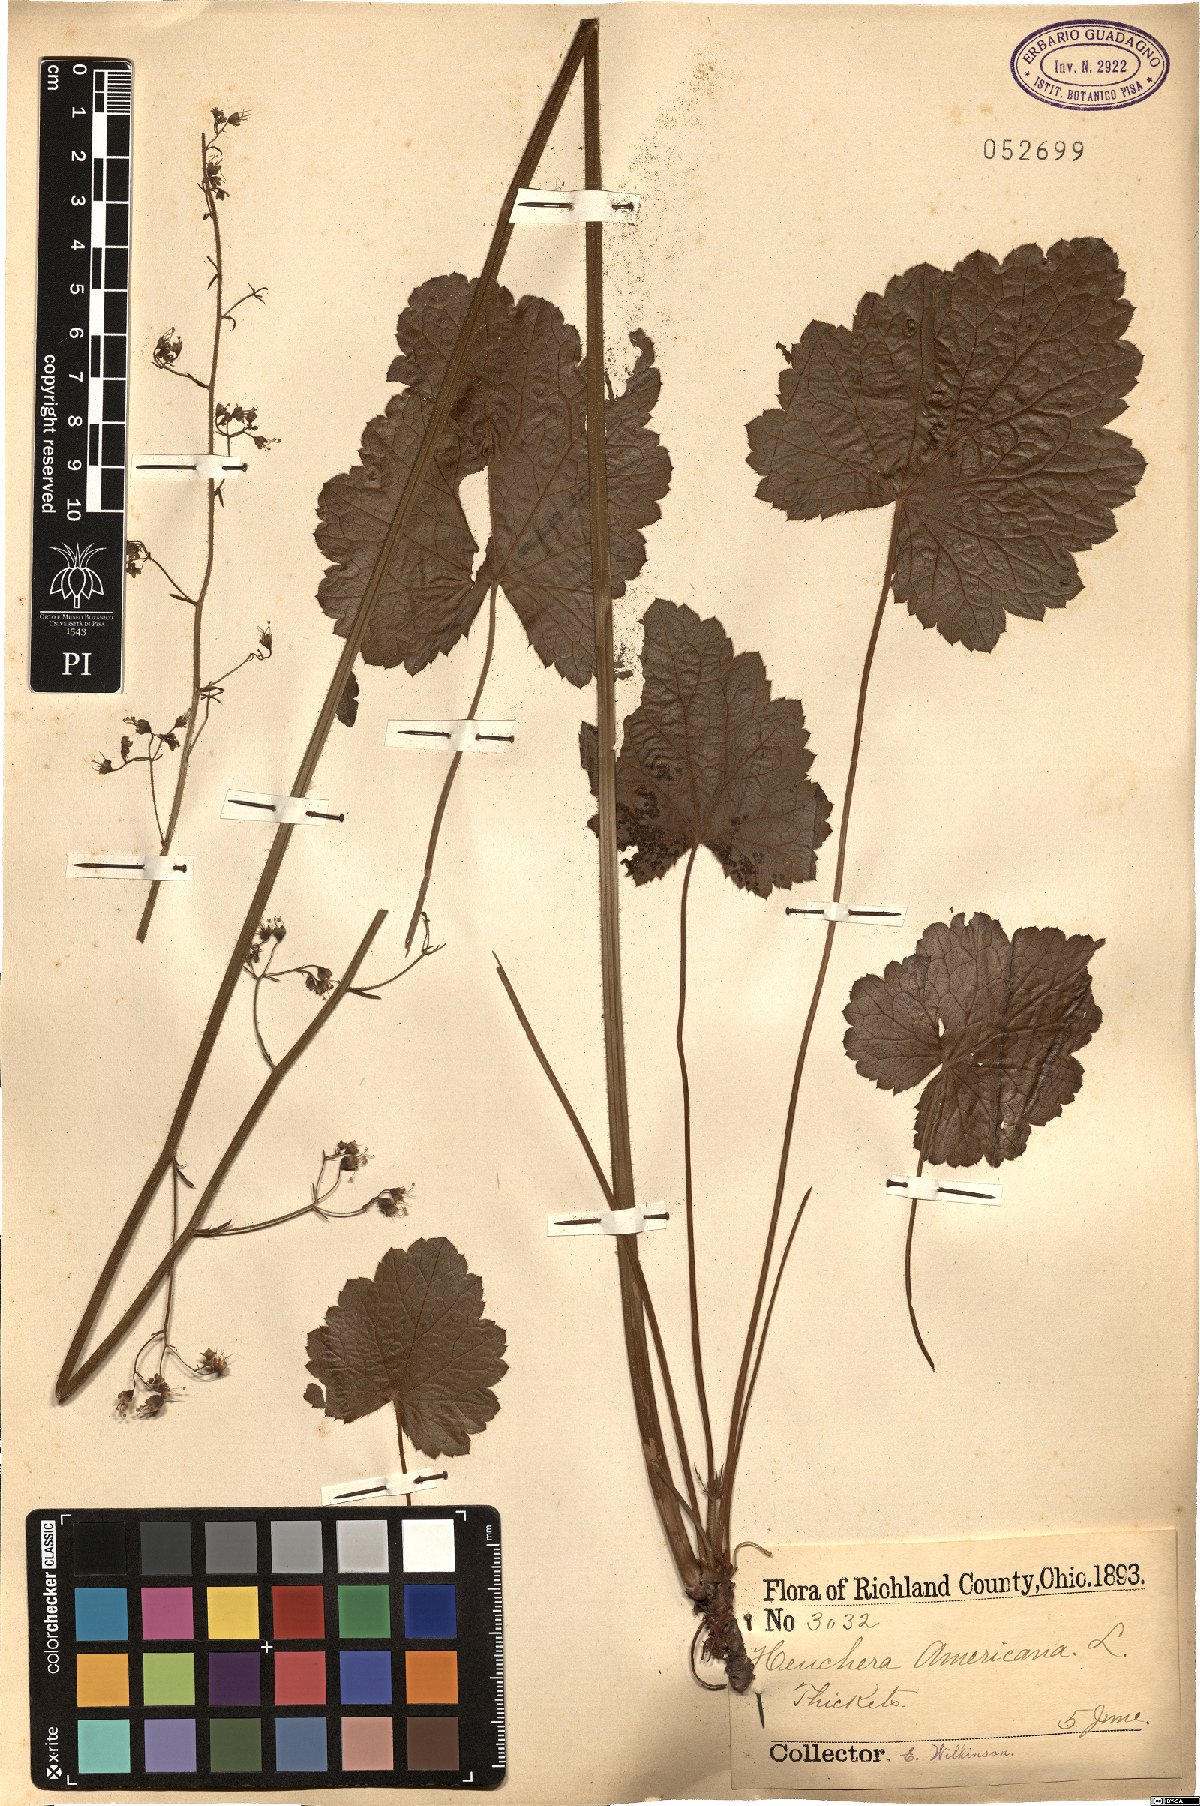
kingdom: Plantae
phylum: Tracheophyta
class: Magnoliopsida
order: Saxifragales
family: Saxifragaceae
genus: Heuchera
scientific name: Heuchera americana
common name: Alumroot
